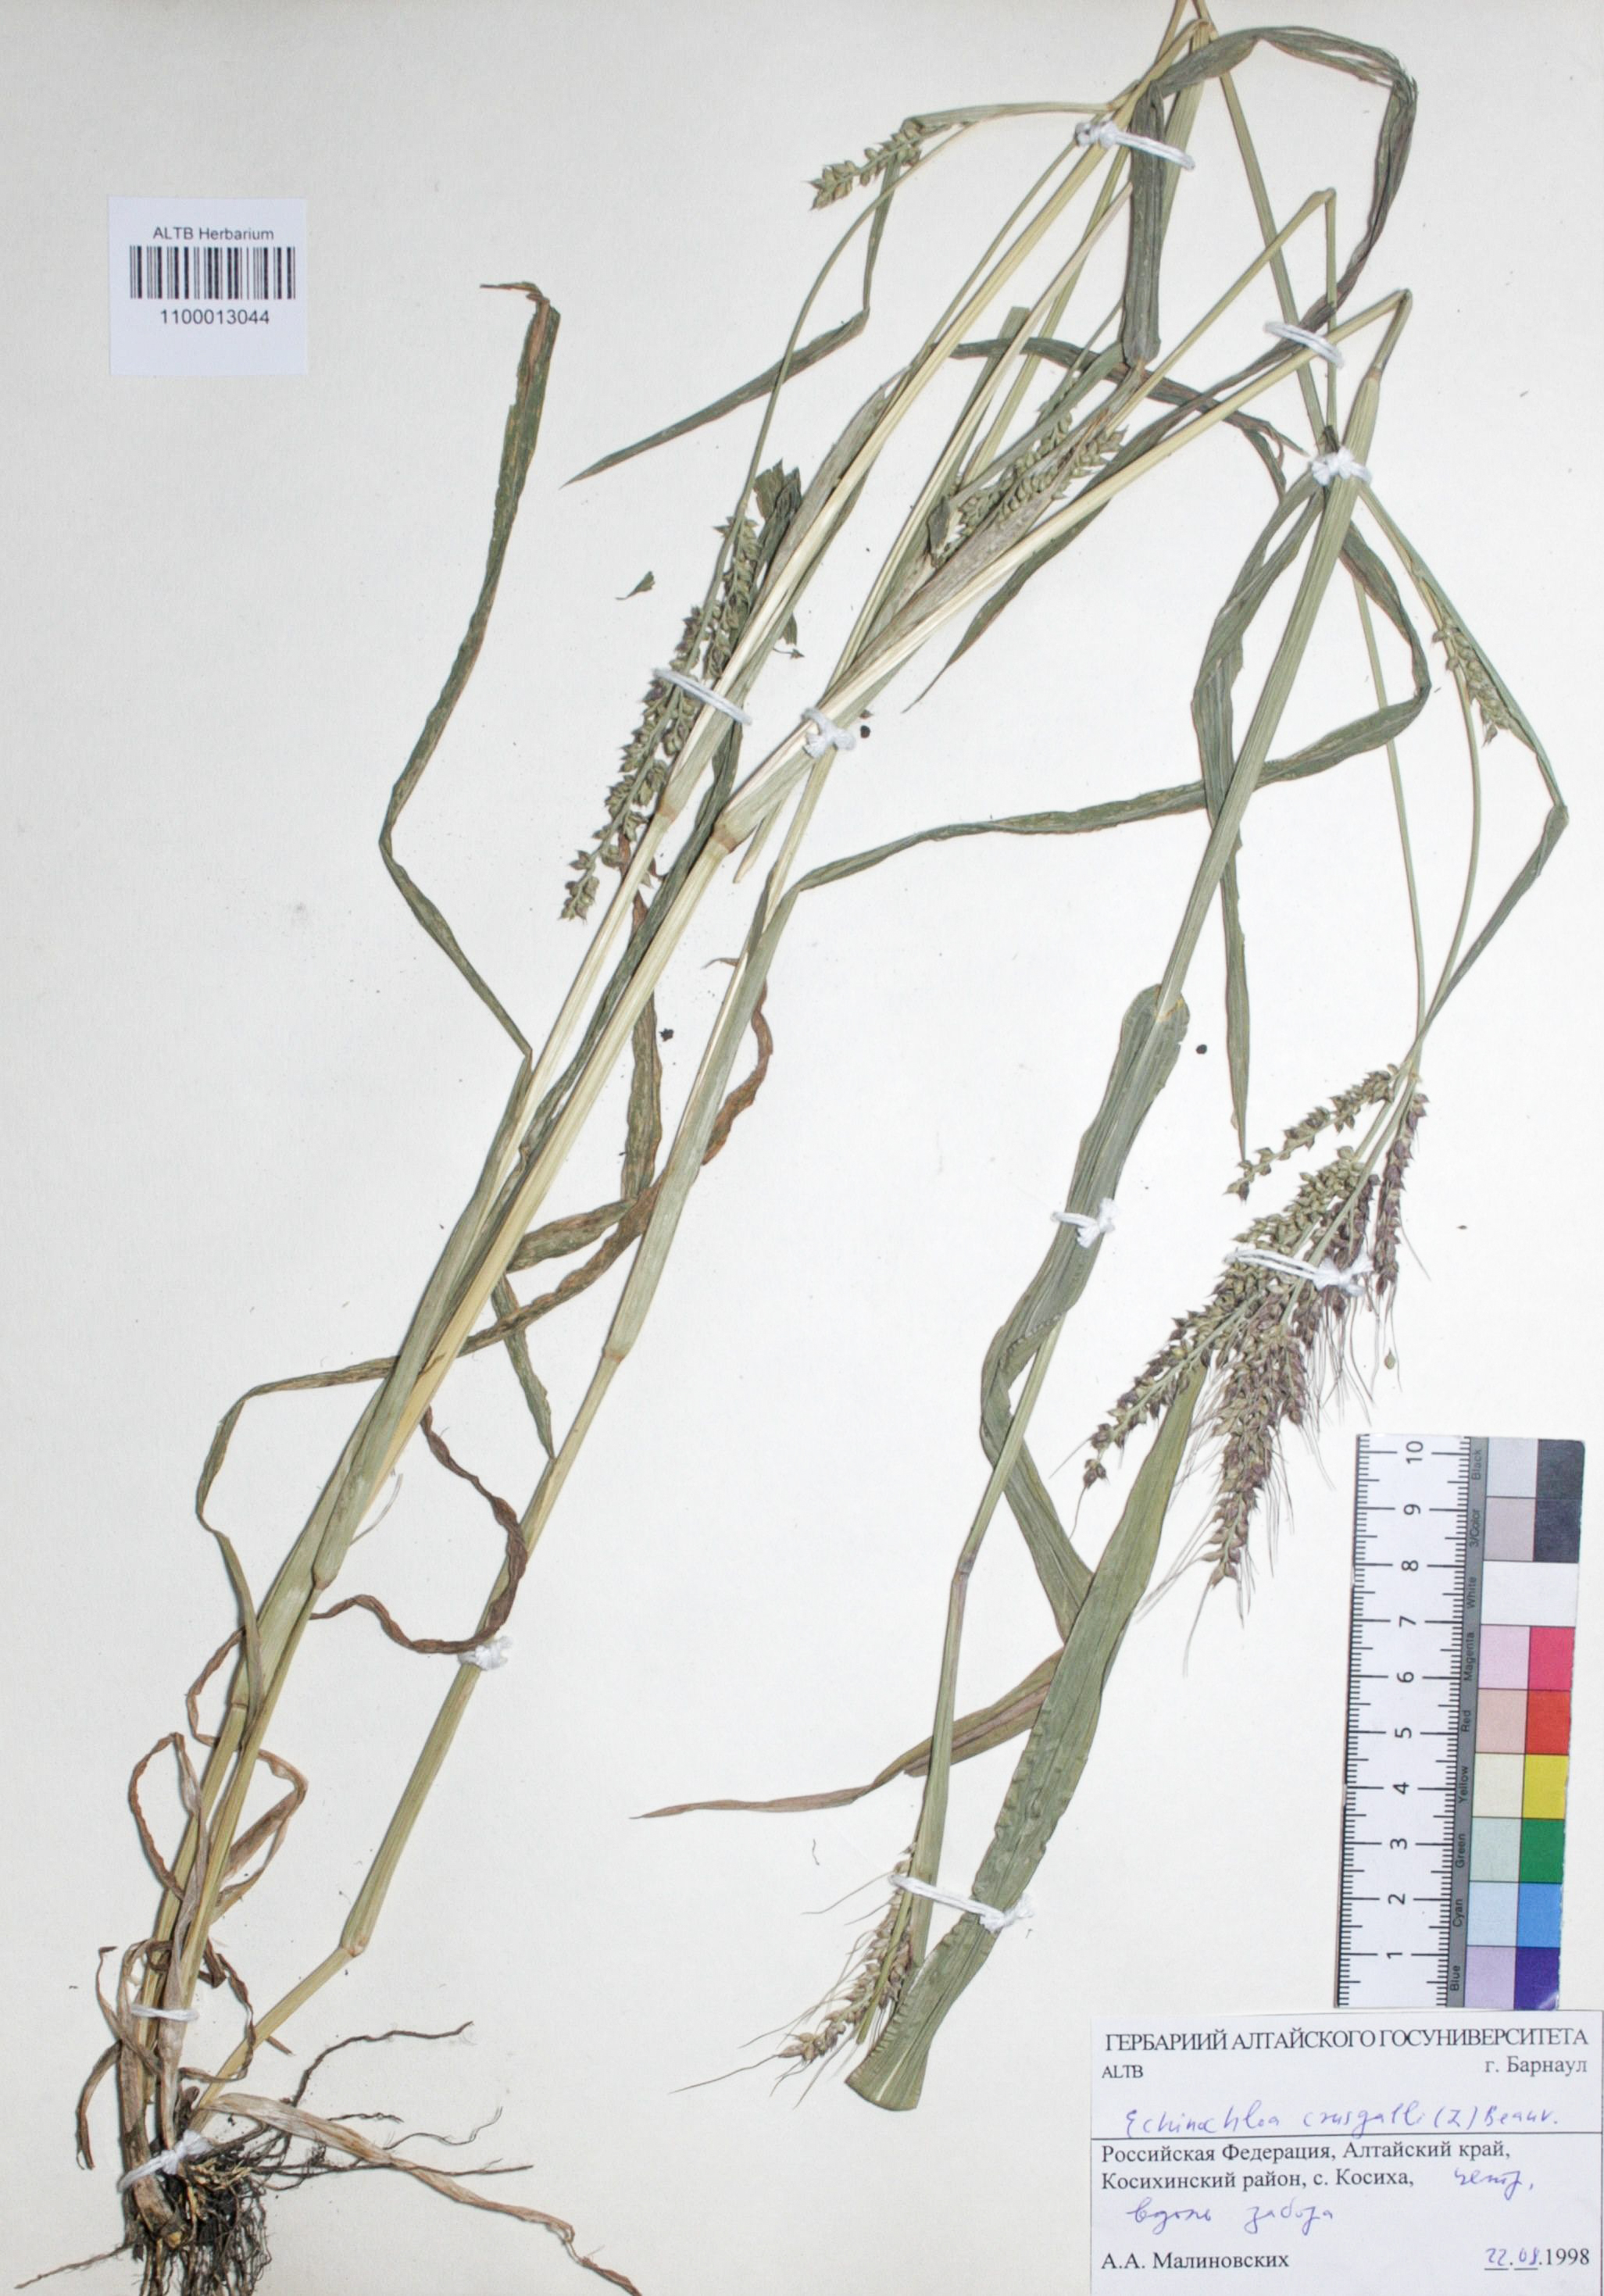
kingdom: Plantae
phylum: Tracheophyta
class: Liliopsida
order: Poales
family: Poaceae
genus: Echinochloa
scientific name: Echinochloa crus-galli
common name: Cockspur
